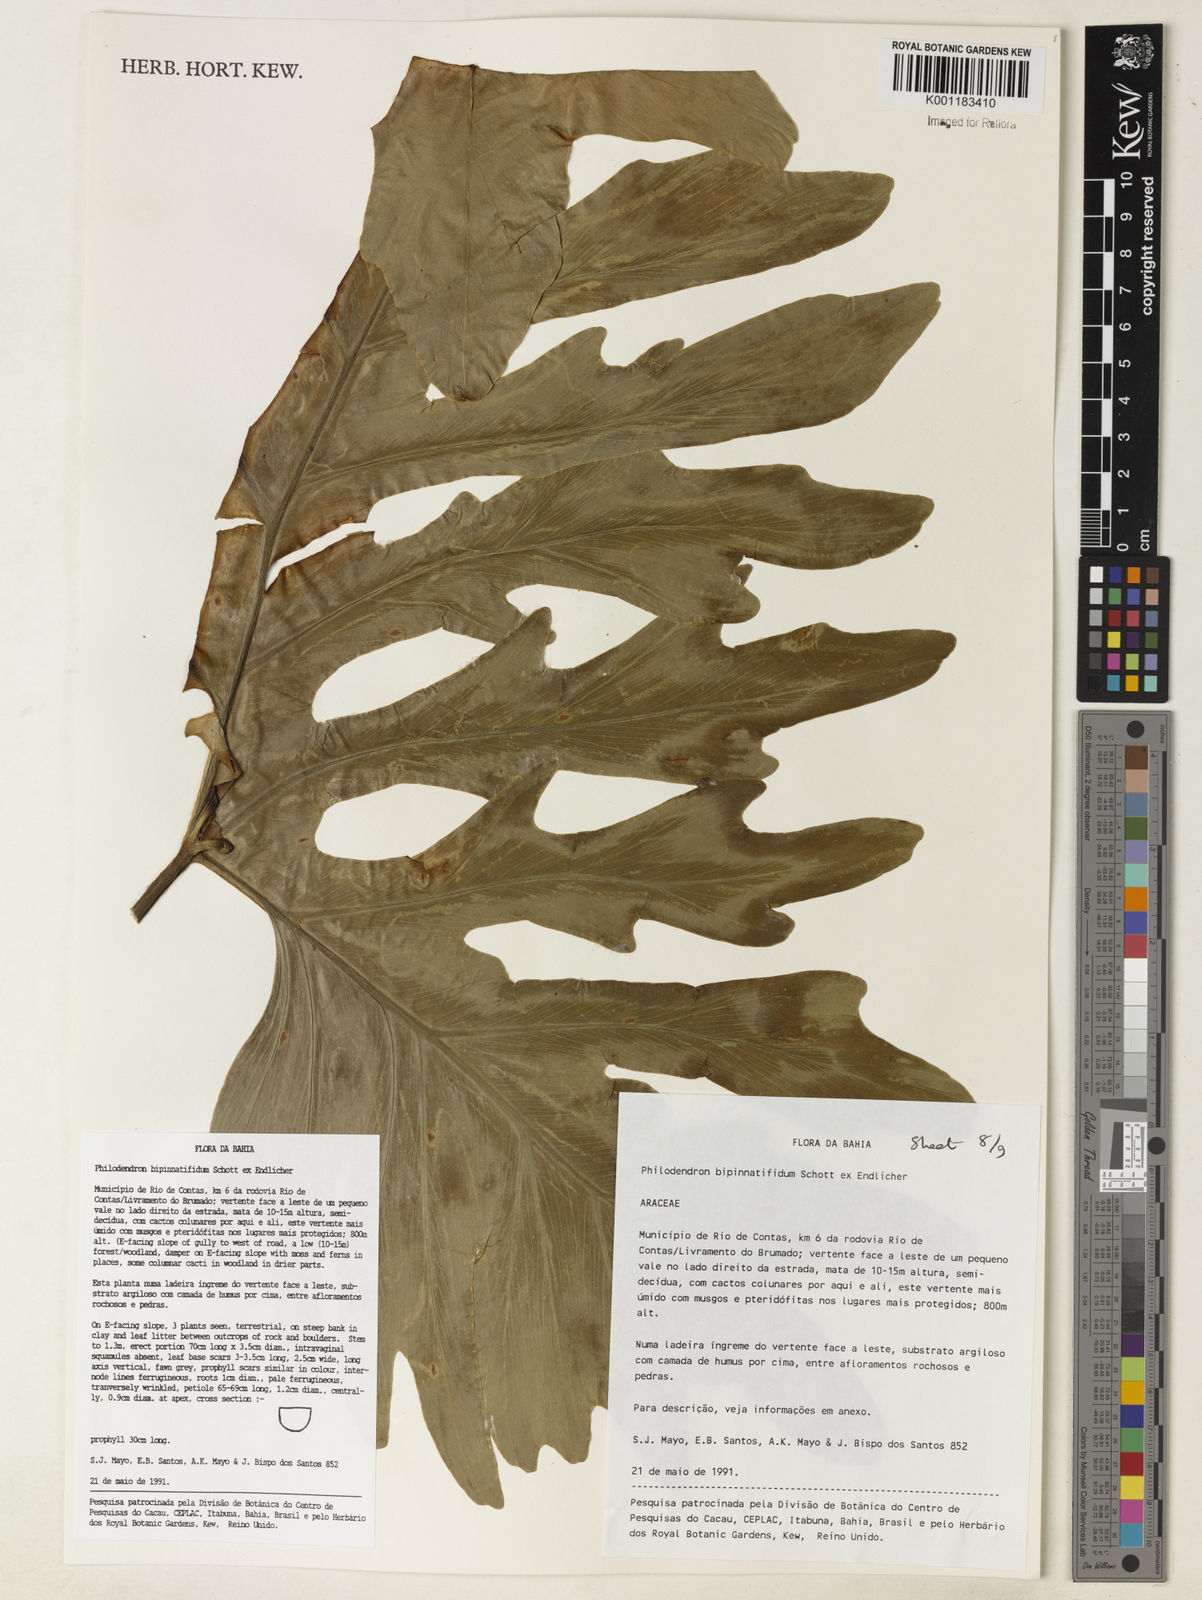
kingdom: Plantae
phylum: Tracheophyta
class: Liliopsida
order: Alismatales
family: Araceae
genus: Philodendron
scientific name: Philodendron
